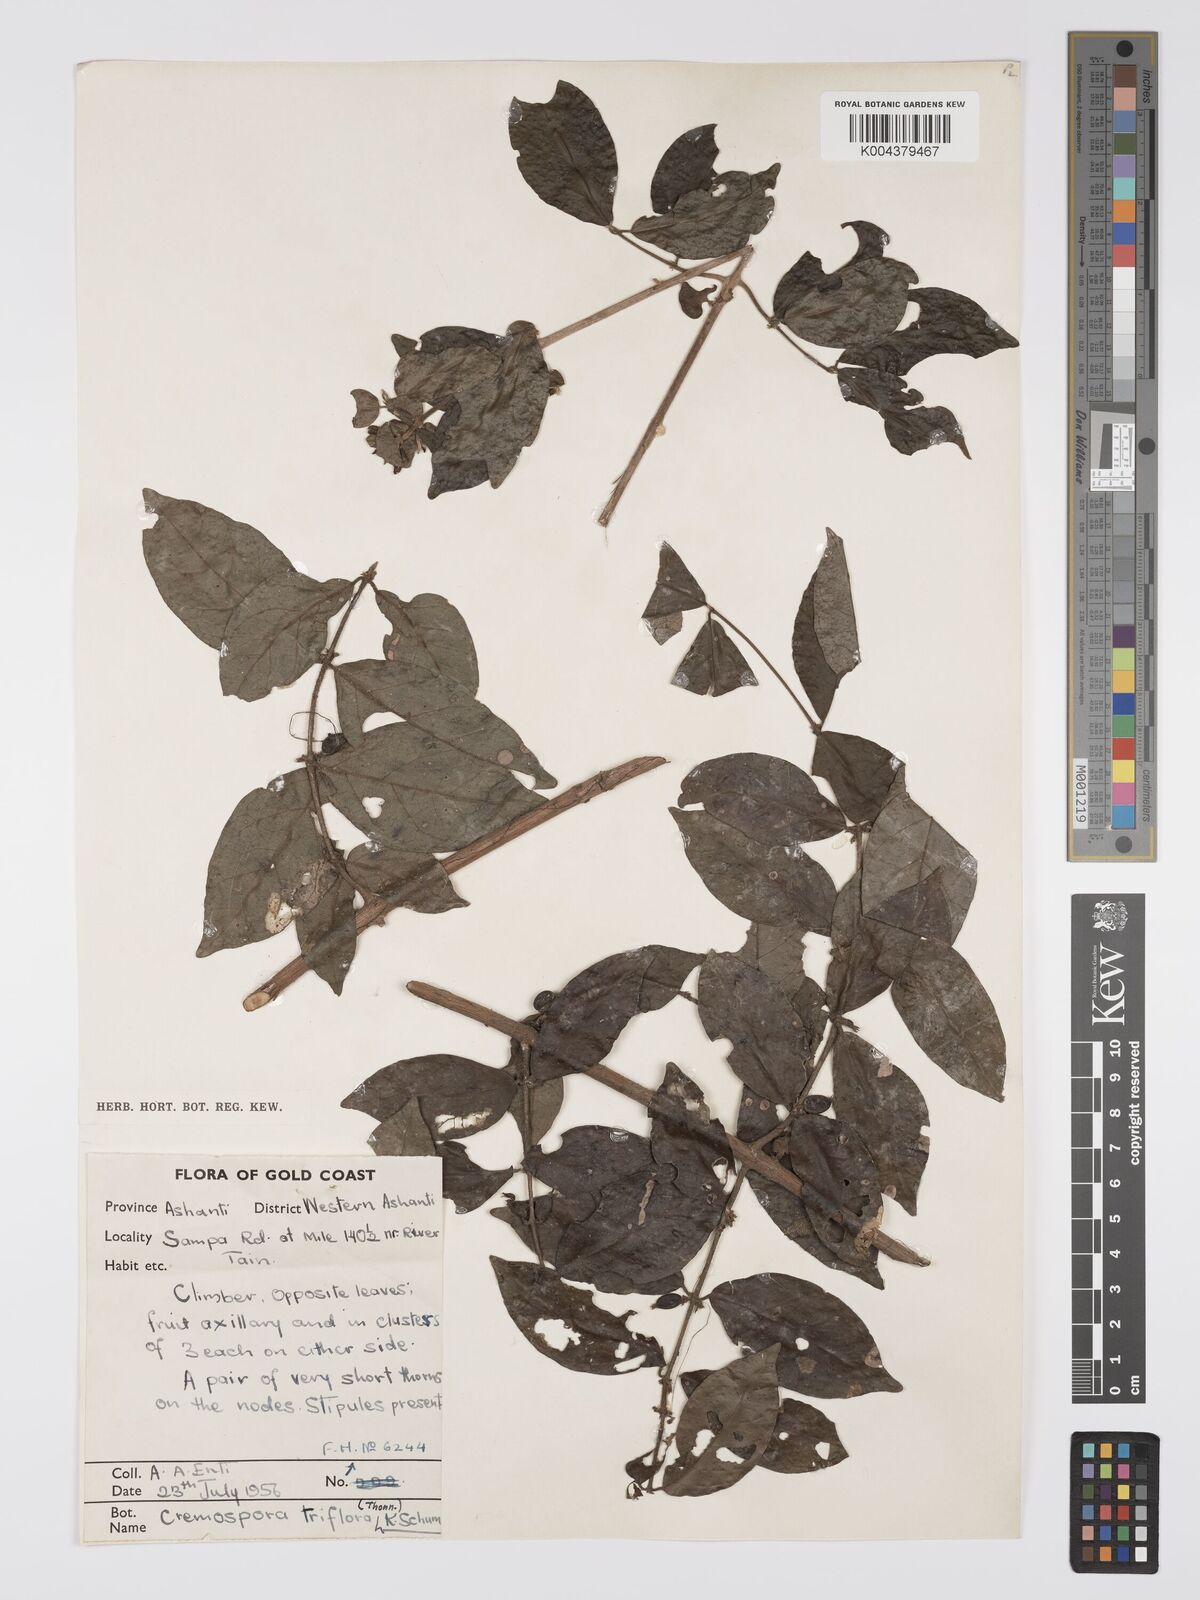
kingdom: Plantae
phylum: Tracheophyta
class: Magnoliopsida
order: Gentianales
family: Rubiaceae
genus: Cremaspora
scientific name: Cremaspora triflora
